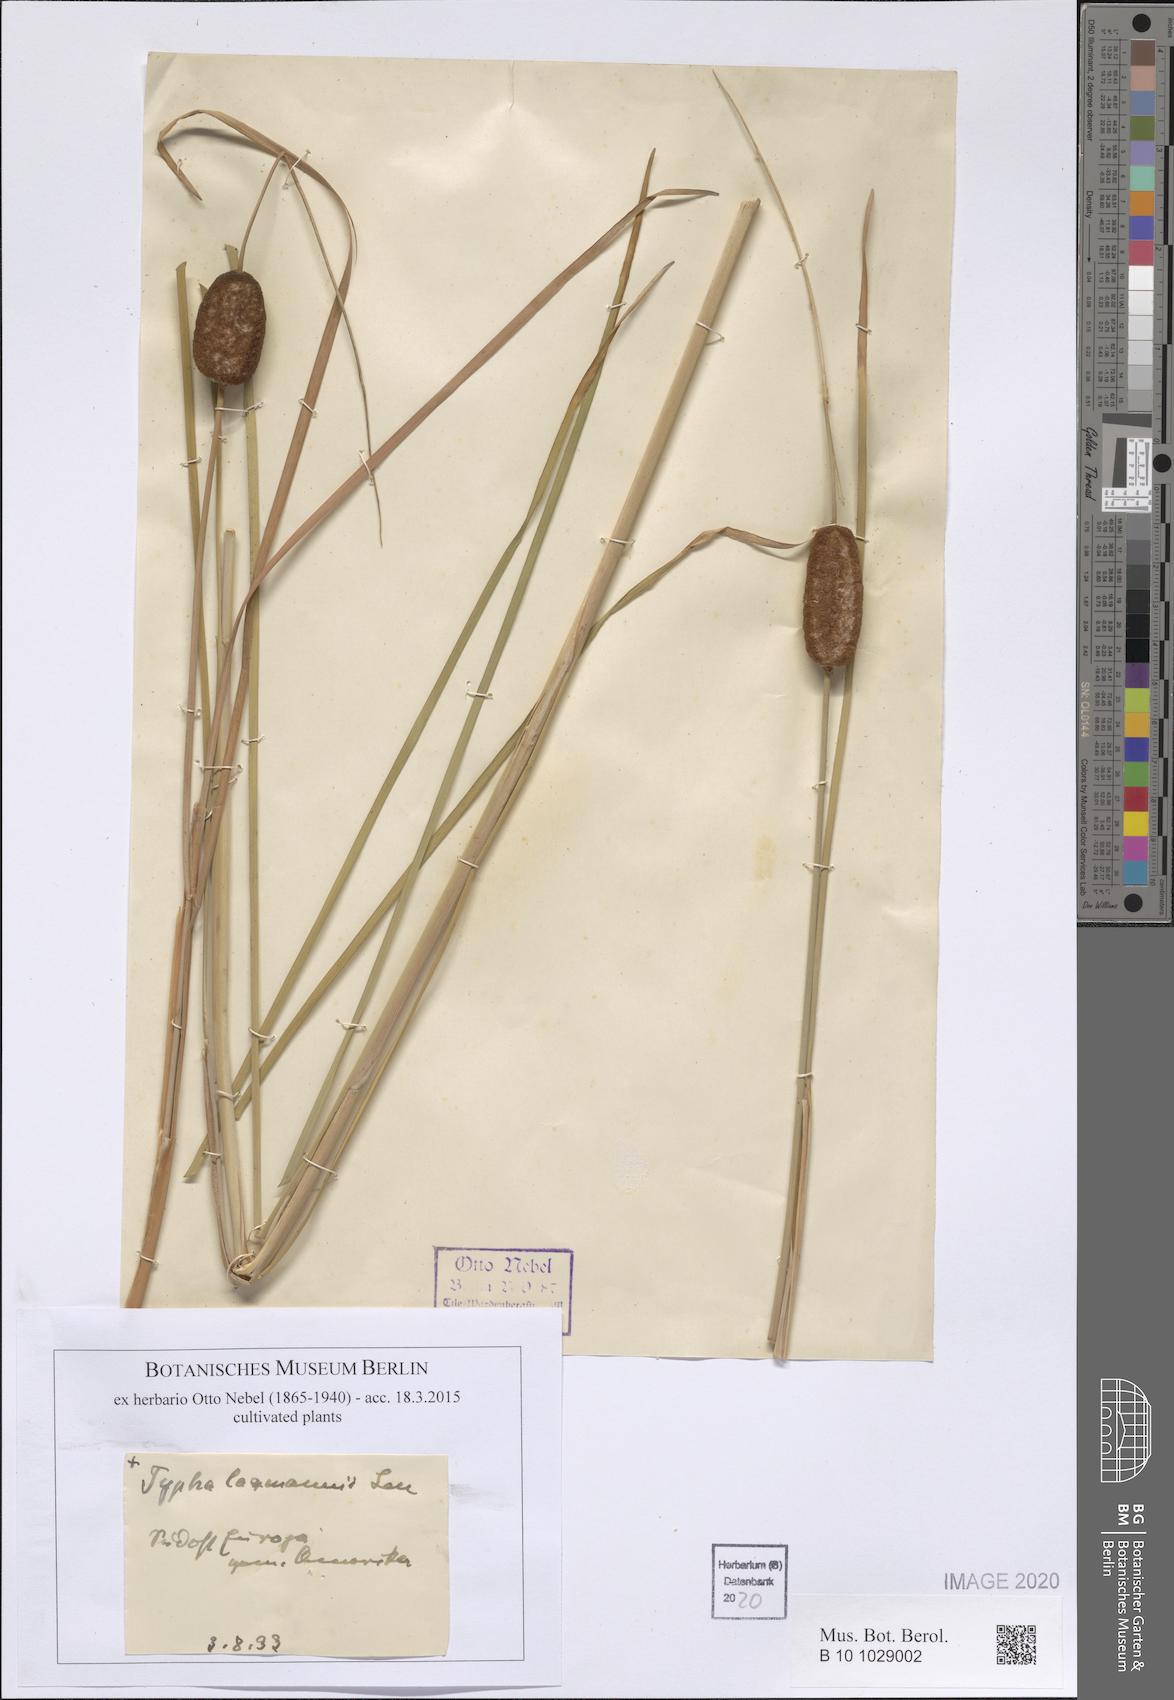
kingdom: Plantae
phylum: Tracheophyta
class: Liliopsida
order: Poales
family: Typhaceae
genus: Typha
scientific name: Typha laxmannii
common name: Laxman’s bulrush
